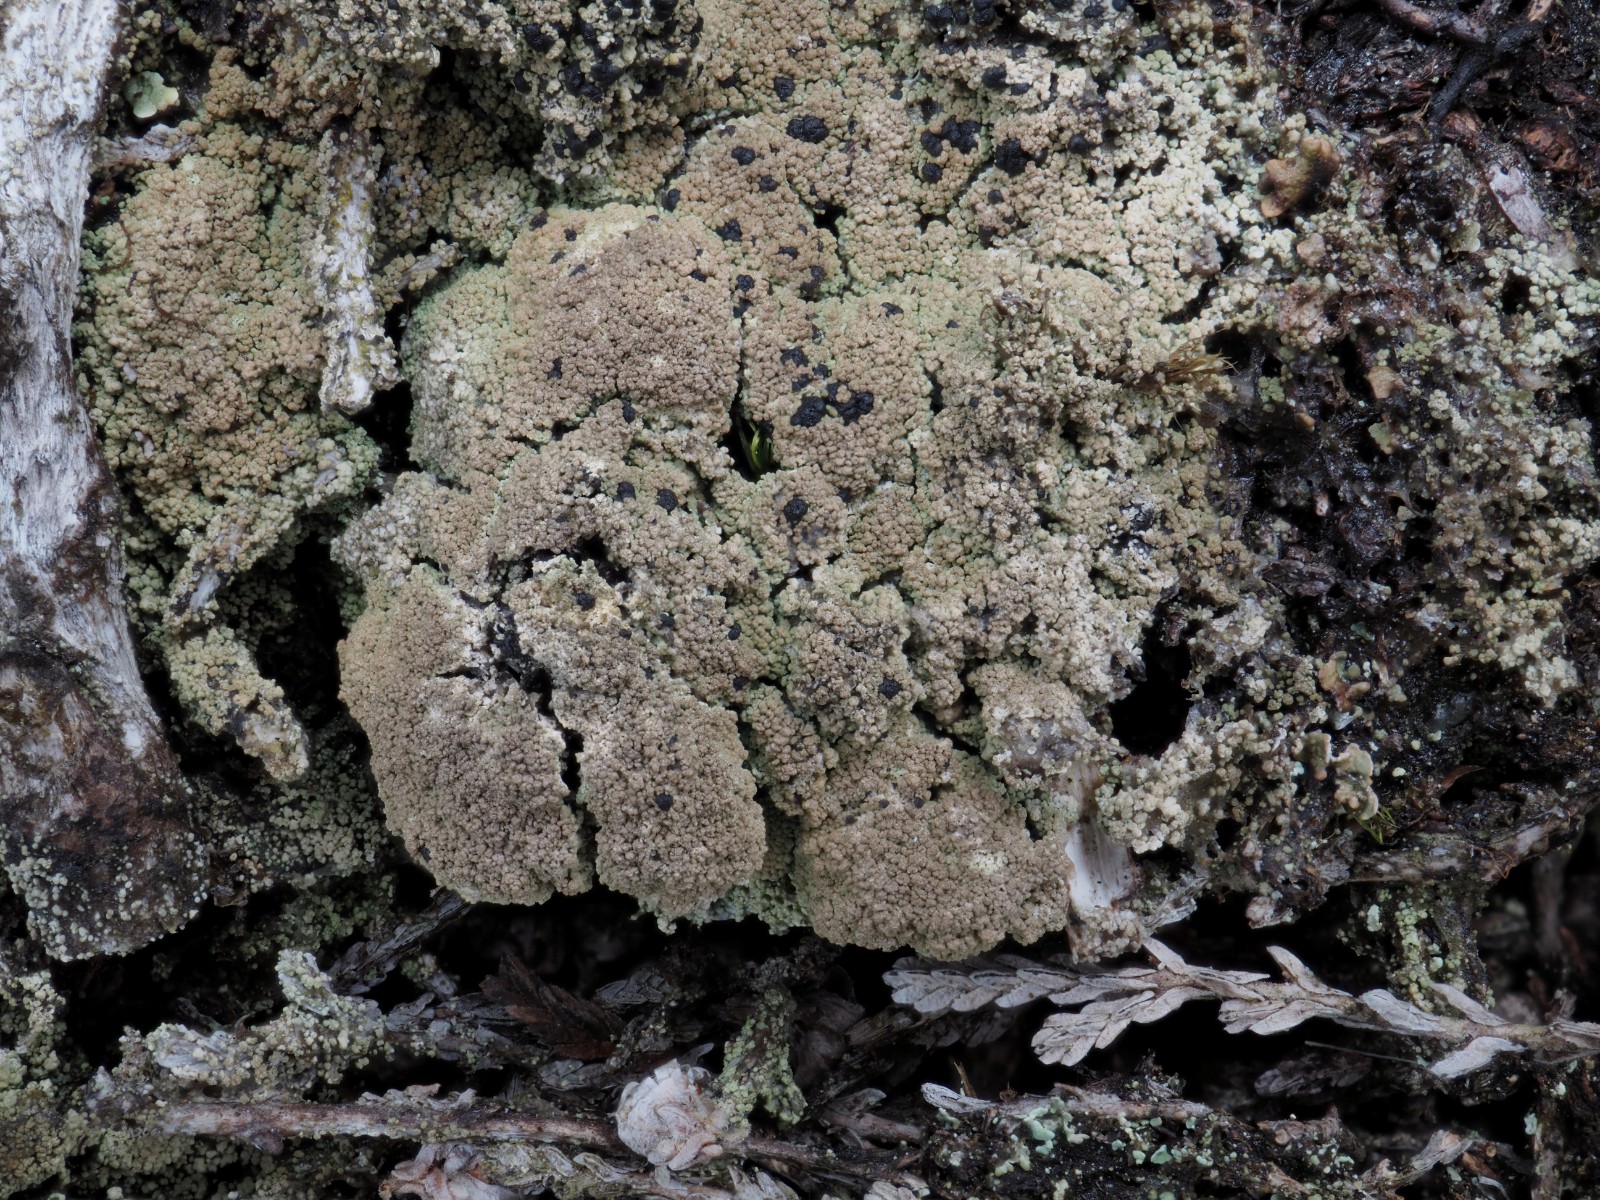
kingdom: Fungi
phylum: Ascomycota
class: Lecanoromycetes
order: Lecanorales
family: Byssolomataceae
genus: Micarea
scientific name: Micarea leprosula
